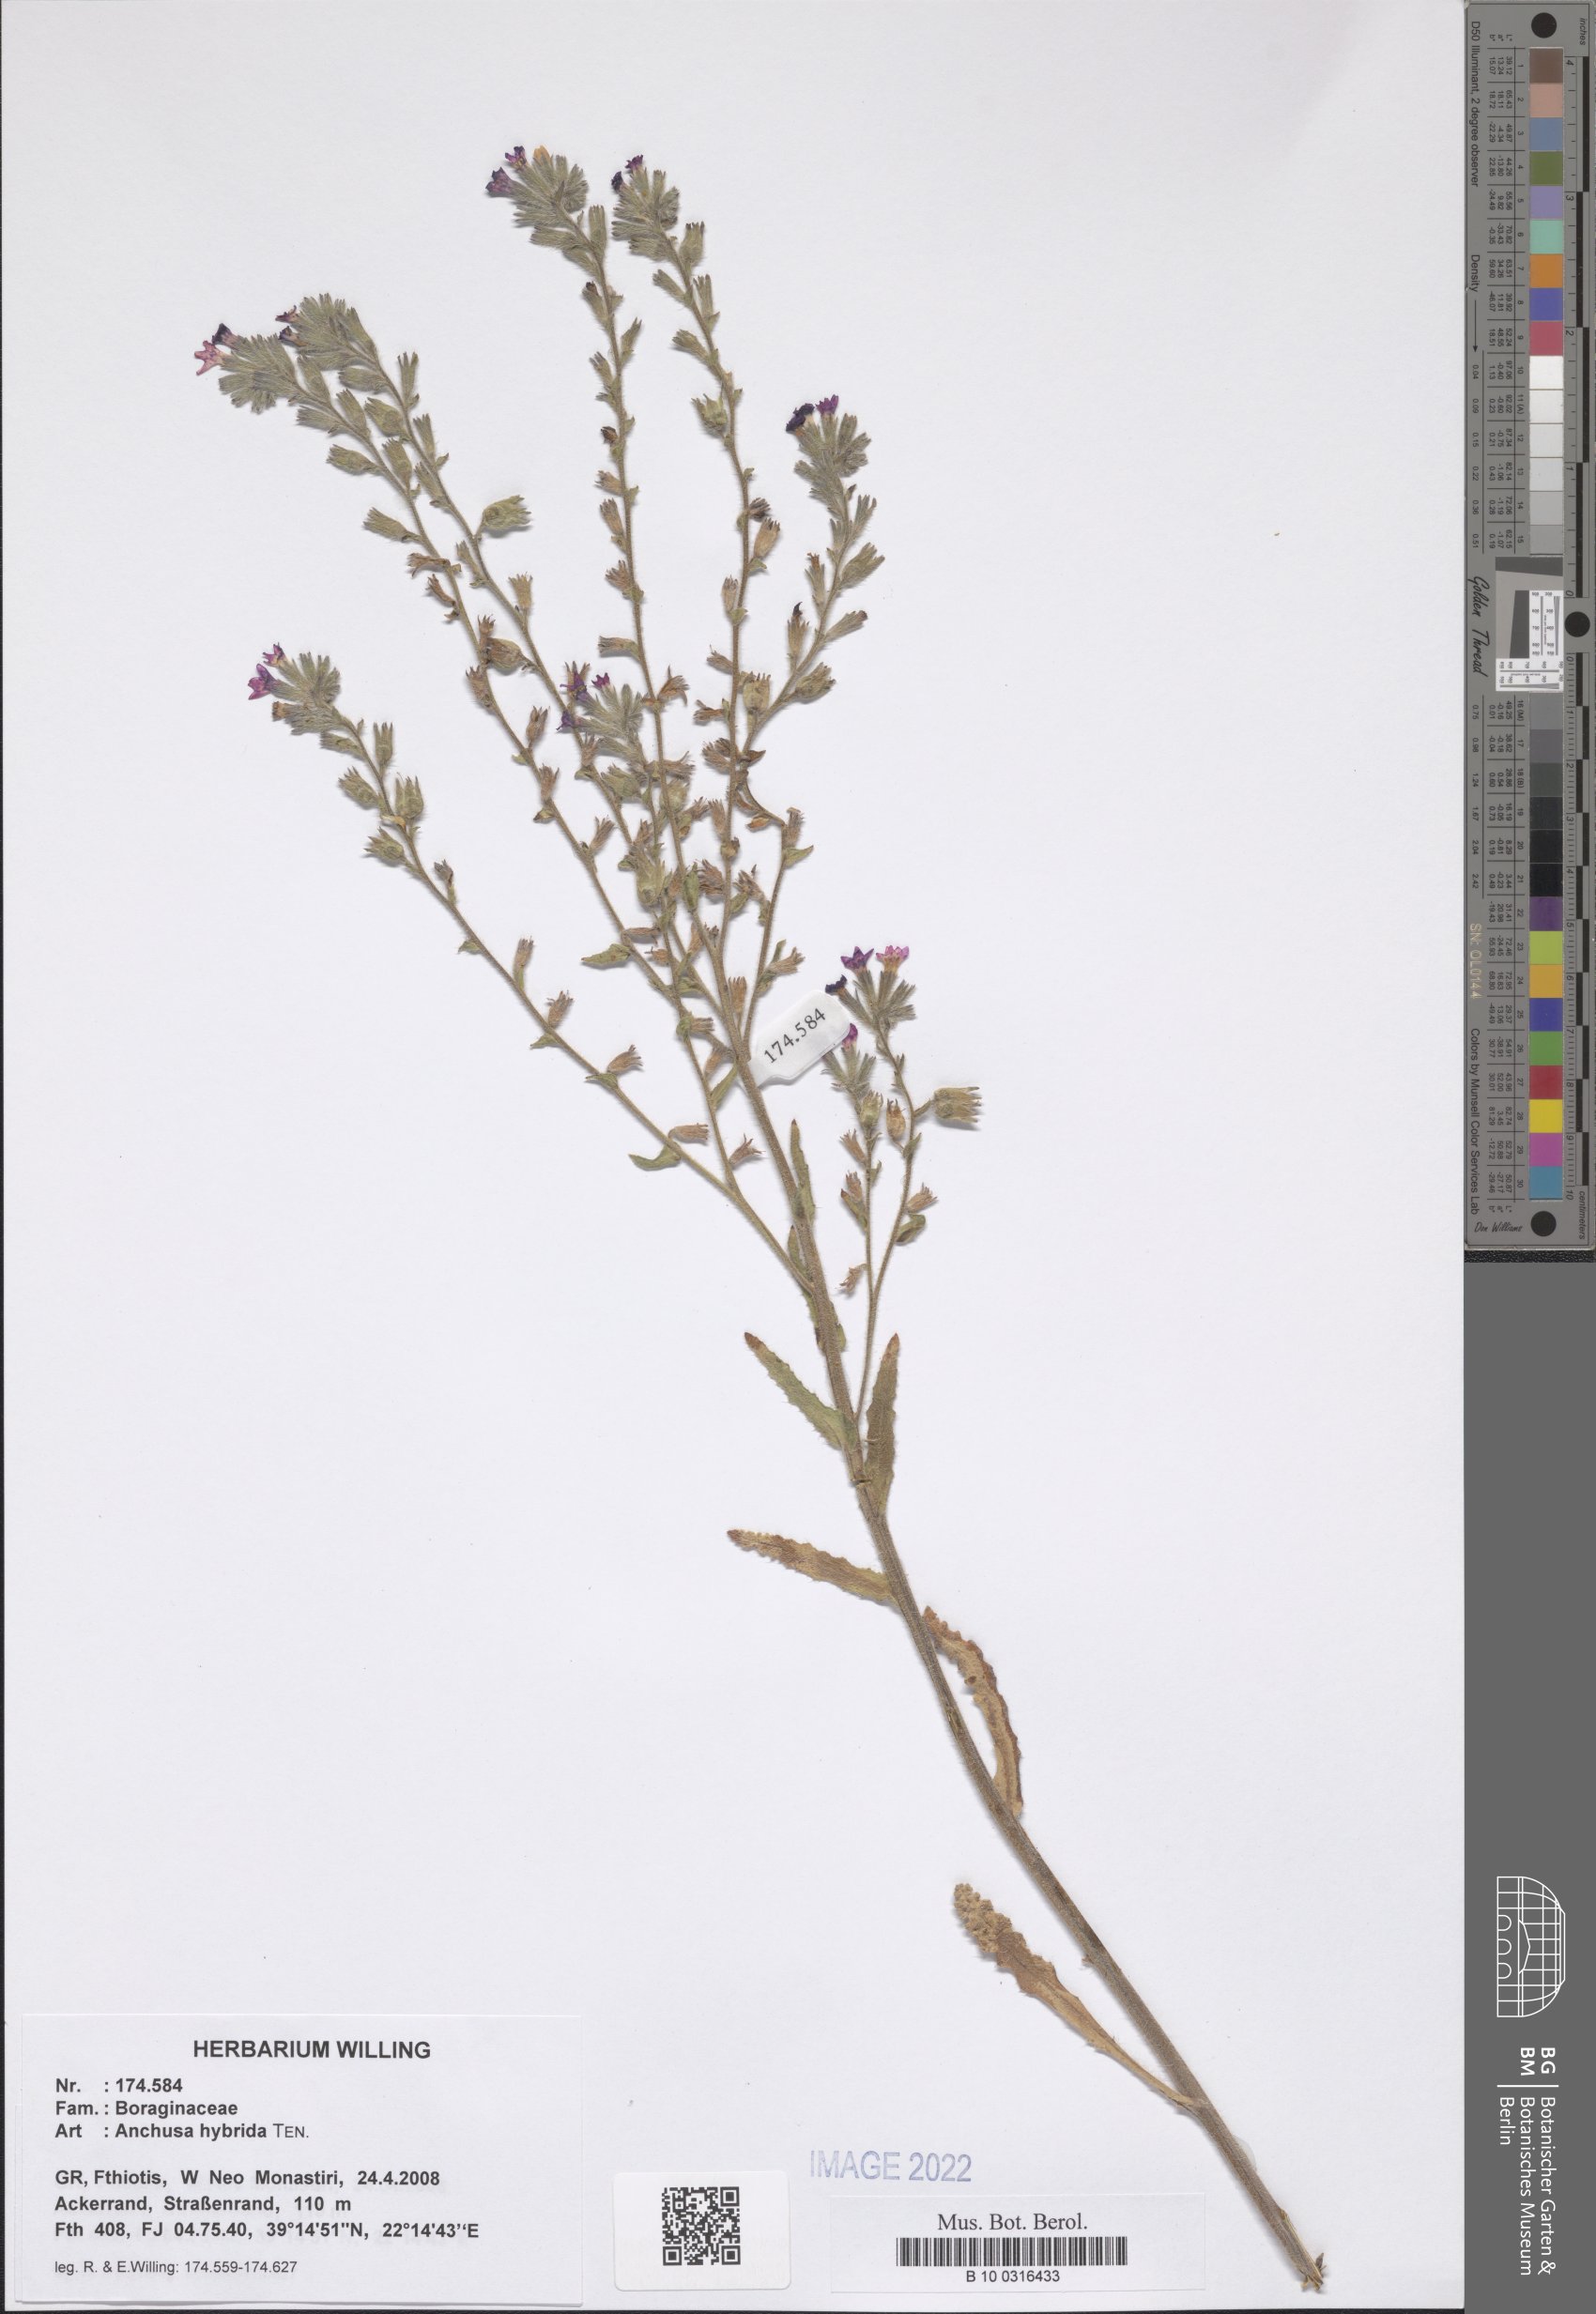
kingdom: Plantae
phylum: Tracheophyta
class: Magnoliopsida
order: Boraginales
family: Boraginaceae
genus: Anchusa
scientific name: Anchusa hybrida
